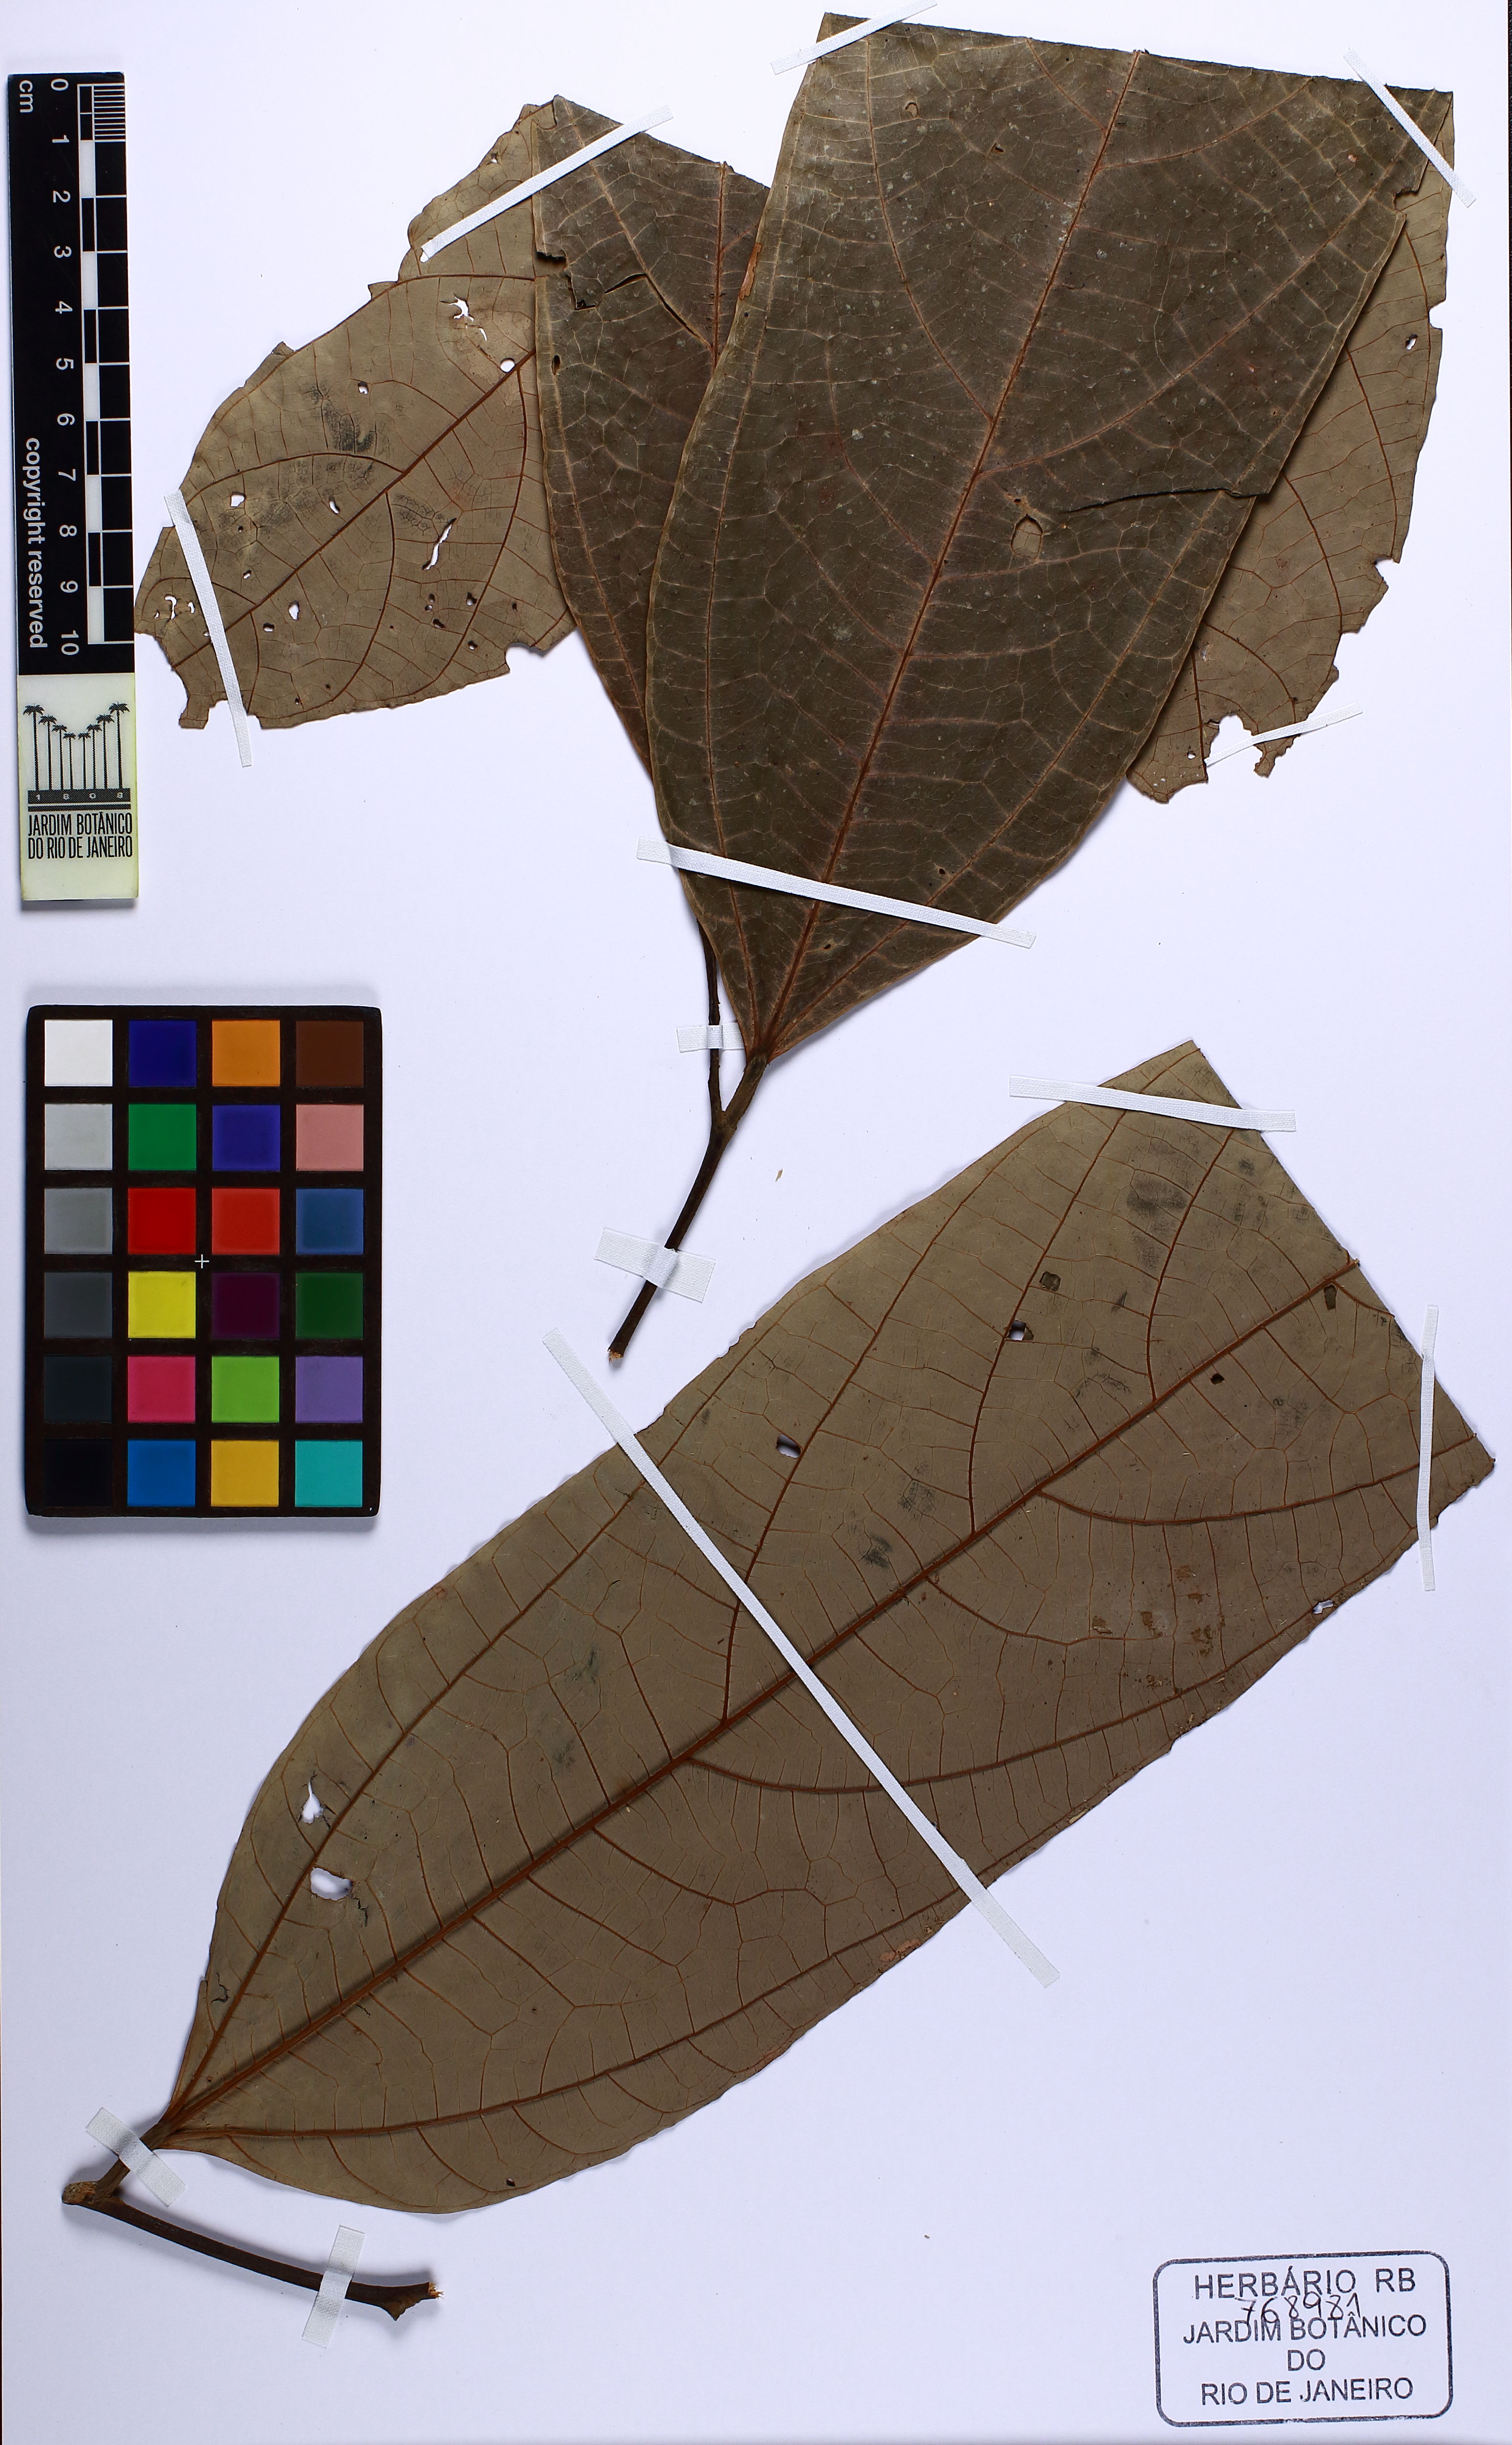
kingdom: Plantae
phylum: Tracheophyta
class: Magnoliopsida
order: Malvales
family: Malvaceae
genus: Theobroma
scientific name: Theobroma sylvestre
